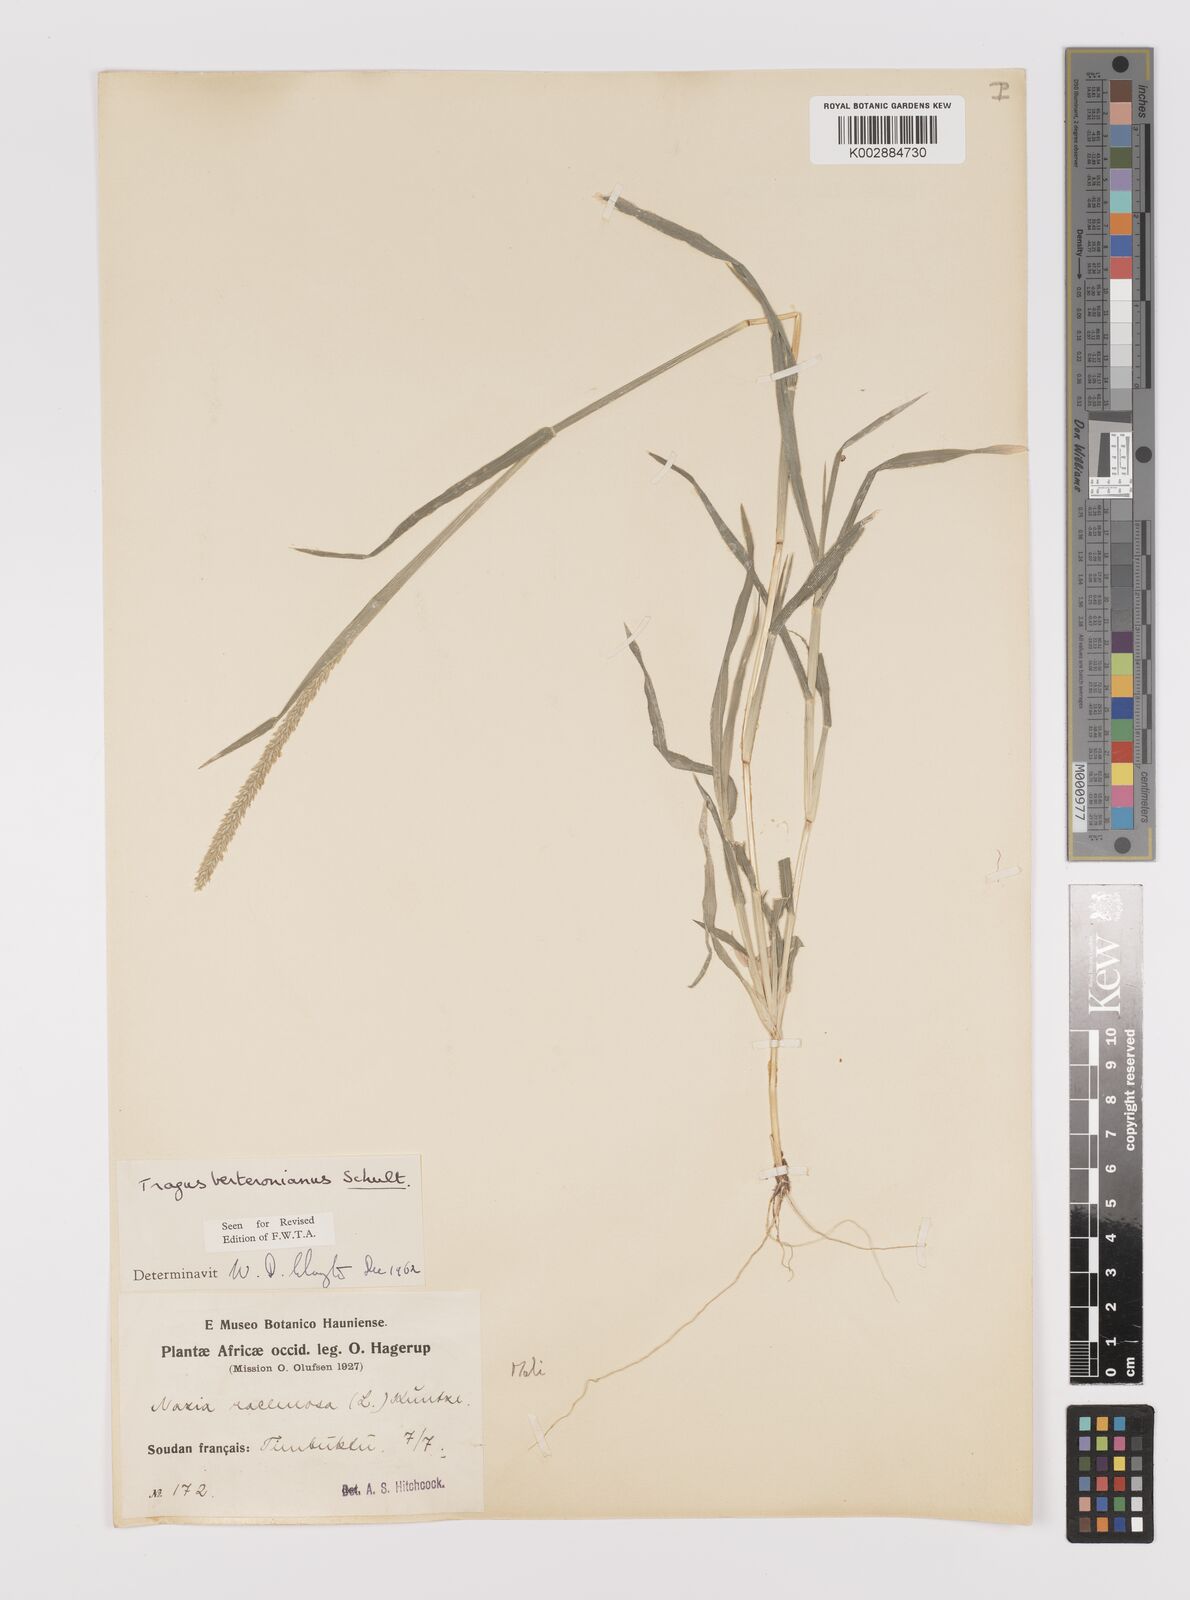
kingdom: Plantae
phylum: Tracheophyta
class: Liliopsida
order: Poales
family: Poaceae
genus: Tragus
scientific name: Tragus berteronianus
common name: African bur-grass
